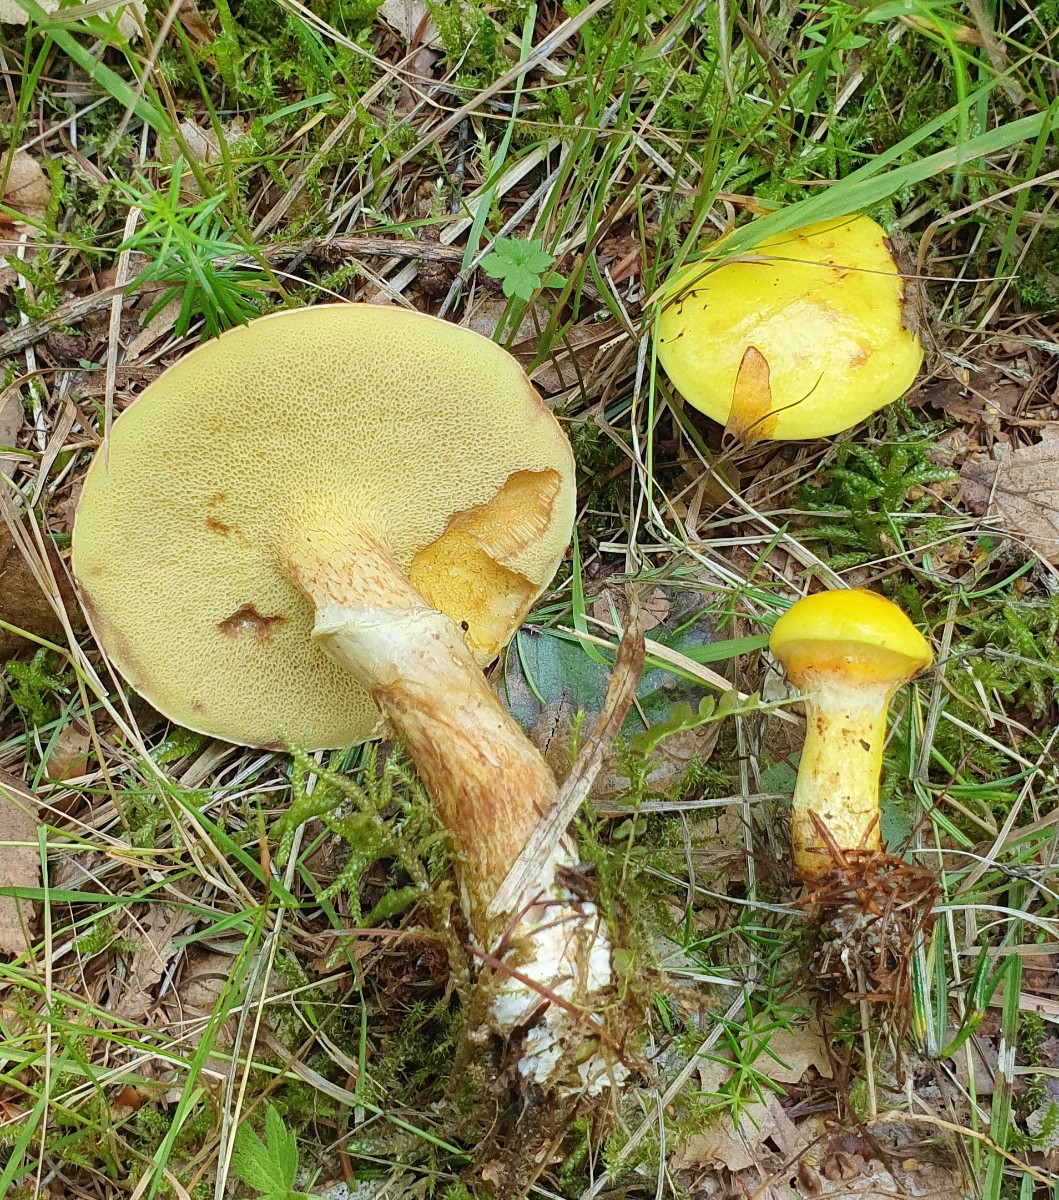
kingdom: Fungi
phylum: Basidiomycota
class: Agaricomycetes
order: Boletales
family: Suillaceae
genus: Suillus
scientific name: Suillus grevillei
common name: lærke-slimrørhat
